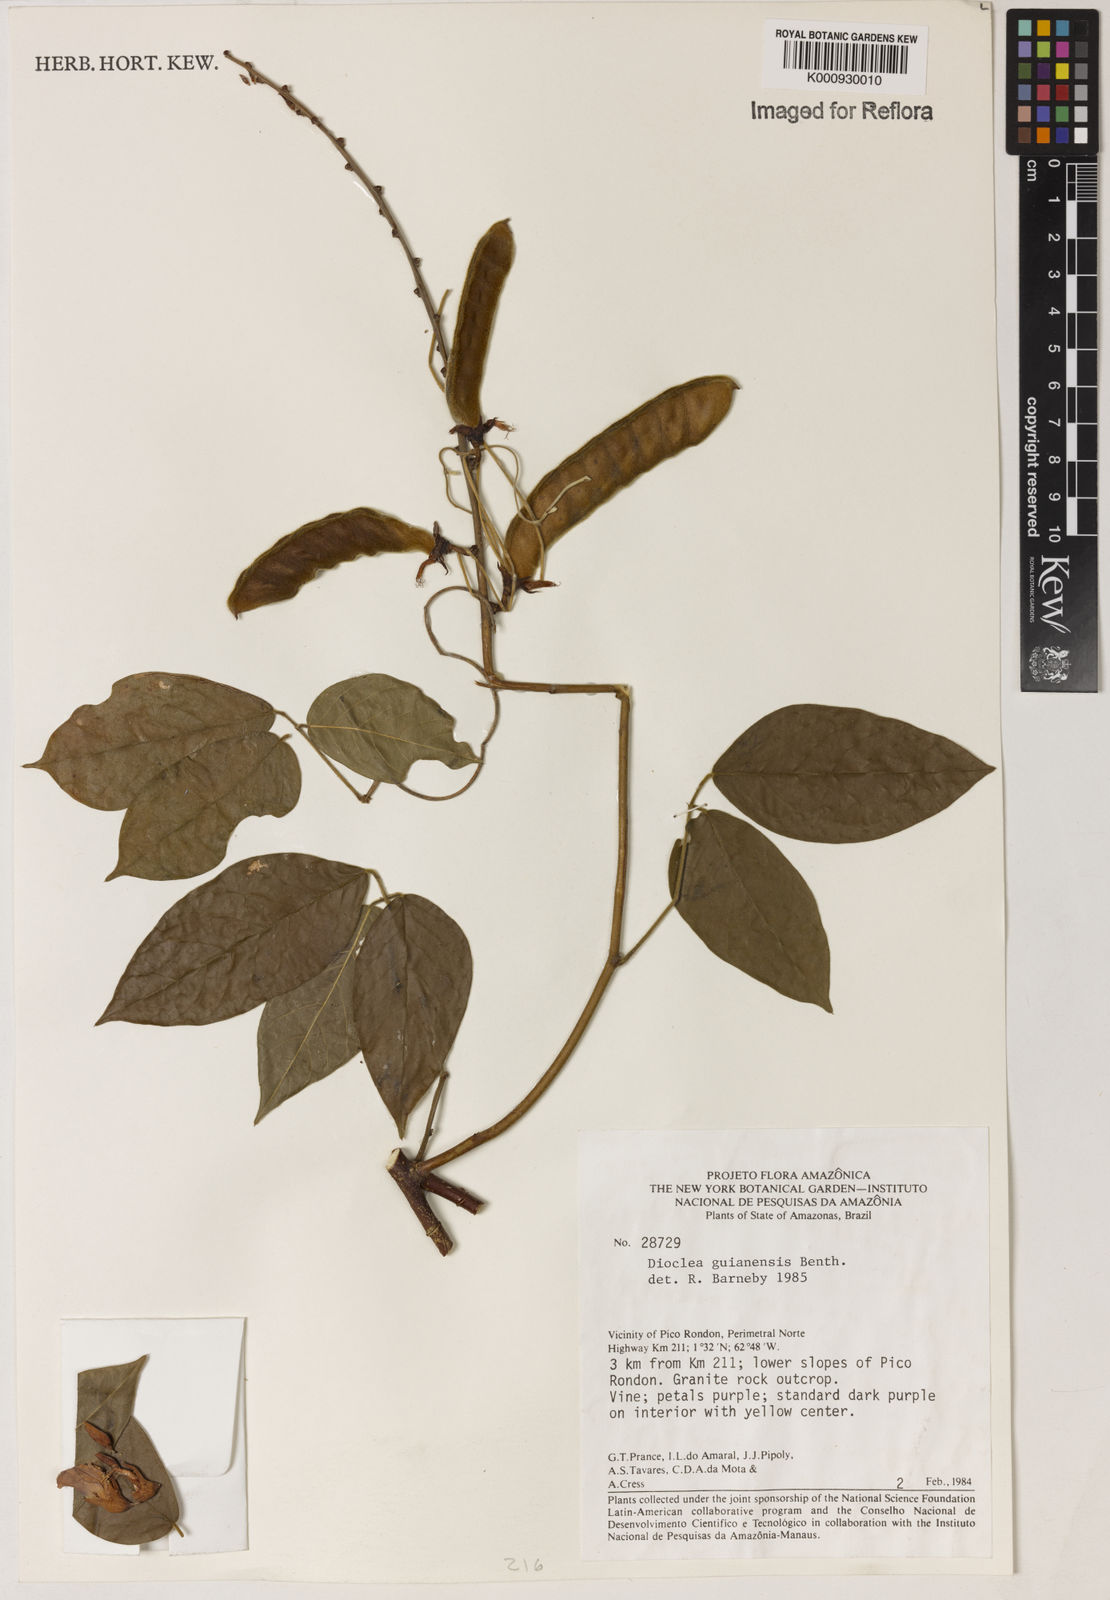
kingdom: Plantae
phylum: Tracheophyta
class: Magnoliopsida
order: Fabales
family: Fabaceae
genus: Dioclea
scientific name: Dioclea guianensis
